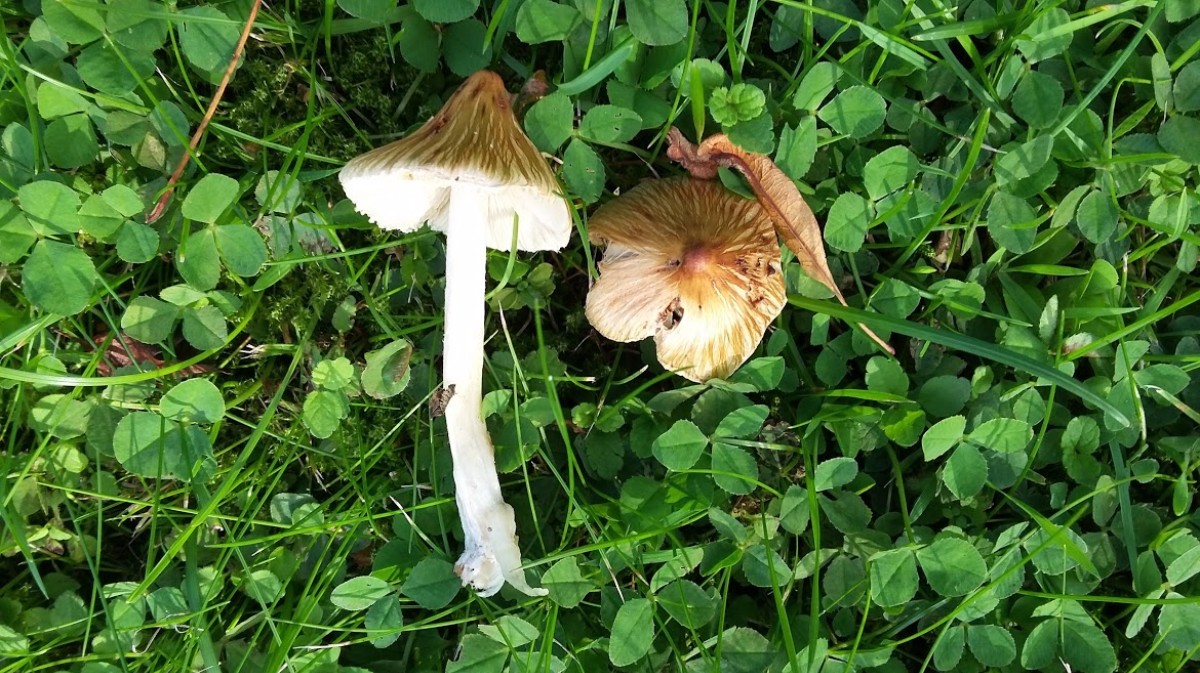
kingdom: Fungi
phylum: Basidiomycota
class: Agaricomycetes
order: Agaricales
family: Inocybaceae
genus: Inocybe
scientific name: Inocybe
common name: trævlhat
